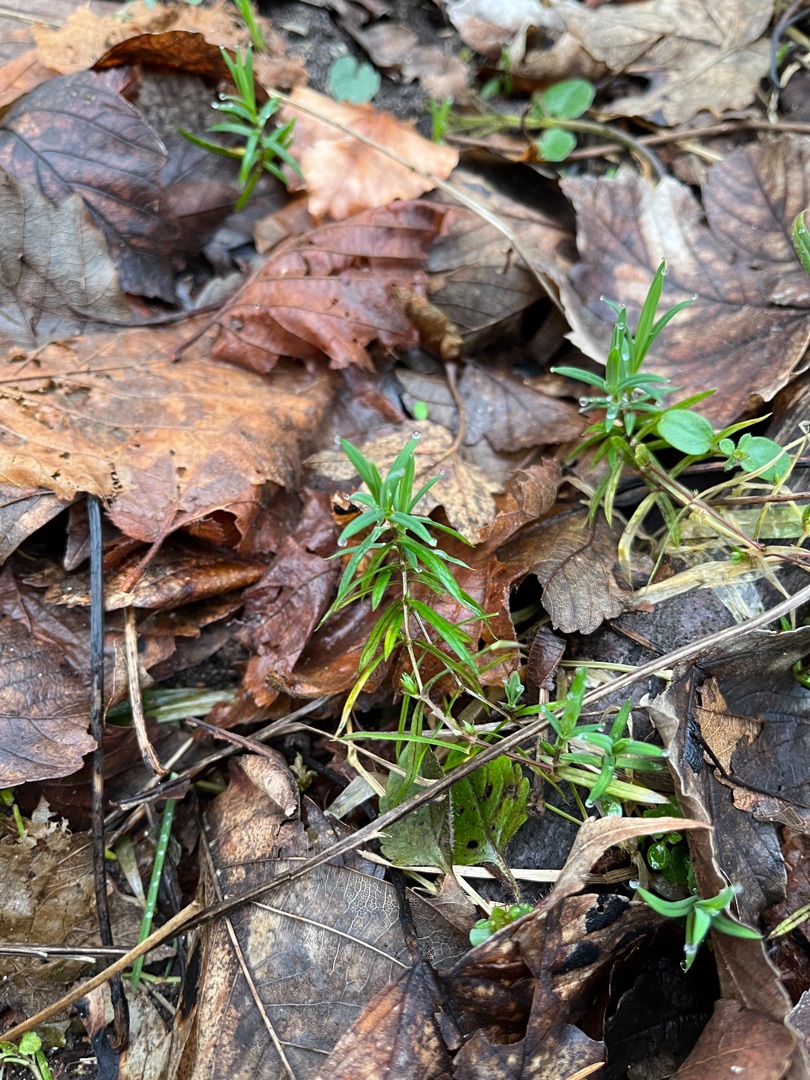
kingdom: Plantae
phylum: Tracheophyta
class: Magnoliopsida
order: Caryophyllales
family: Caryophyllaceae
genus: Rabelera
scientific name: Rabelera holostea
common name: Stor fladstjerne
